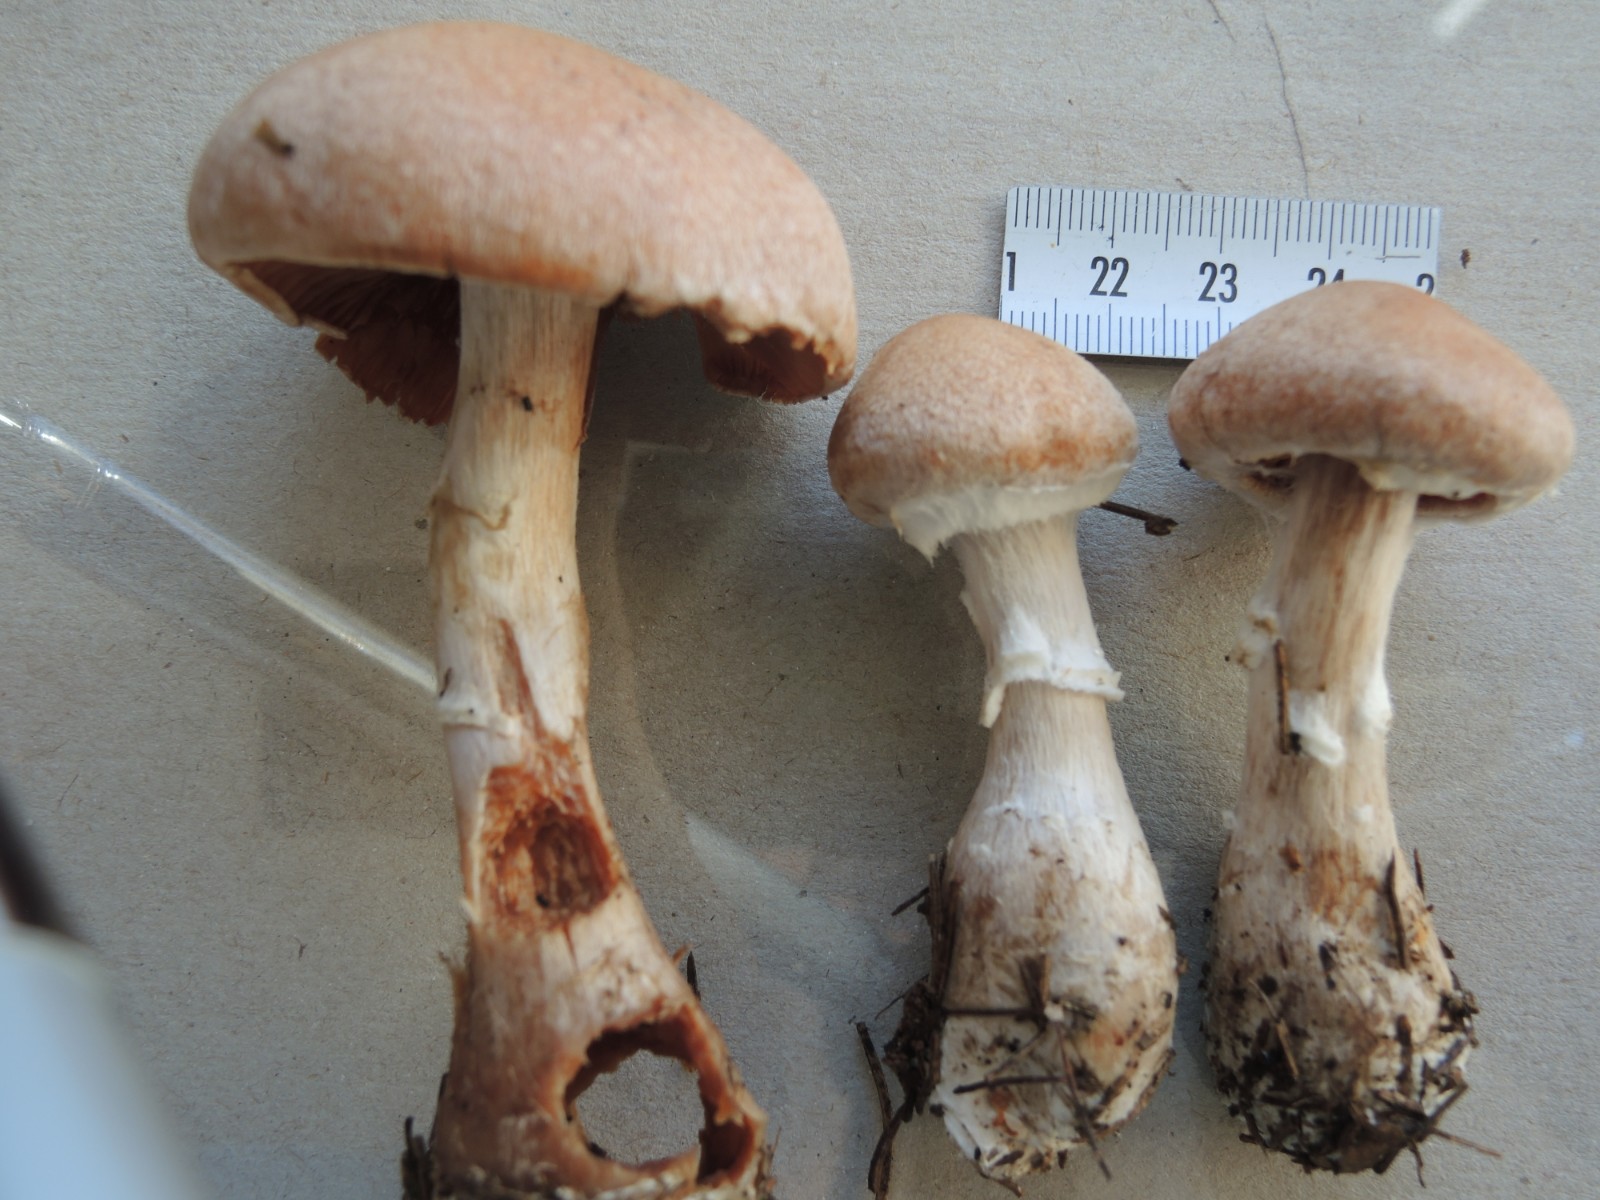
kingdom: Fungi
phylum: Basidiomycota
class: Agaricomycetes
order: Agaricales
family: Cortinariaceae
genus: Cortinarius
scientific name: Cortinarius laniger
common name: teglbladet slørhat
